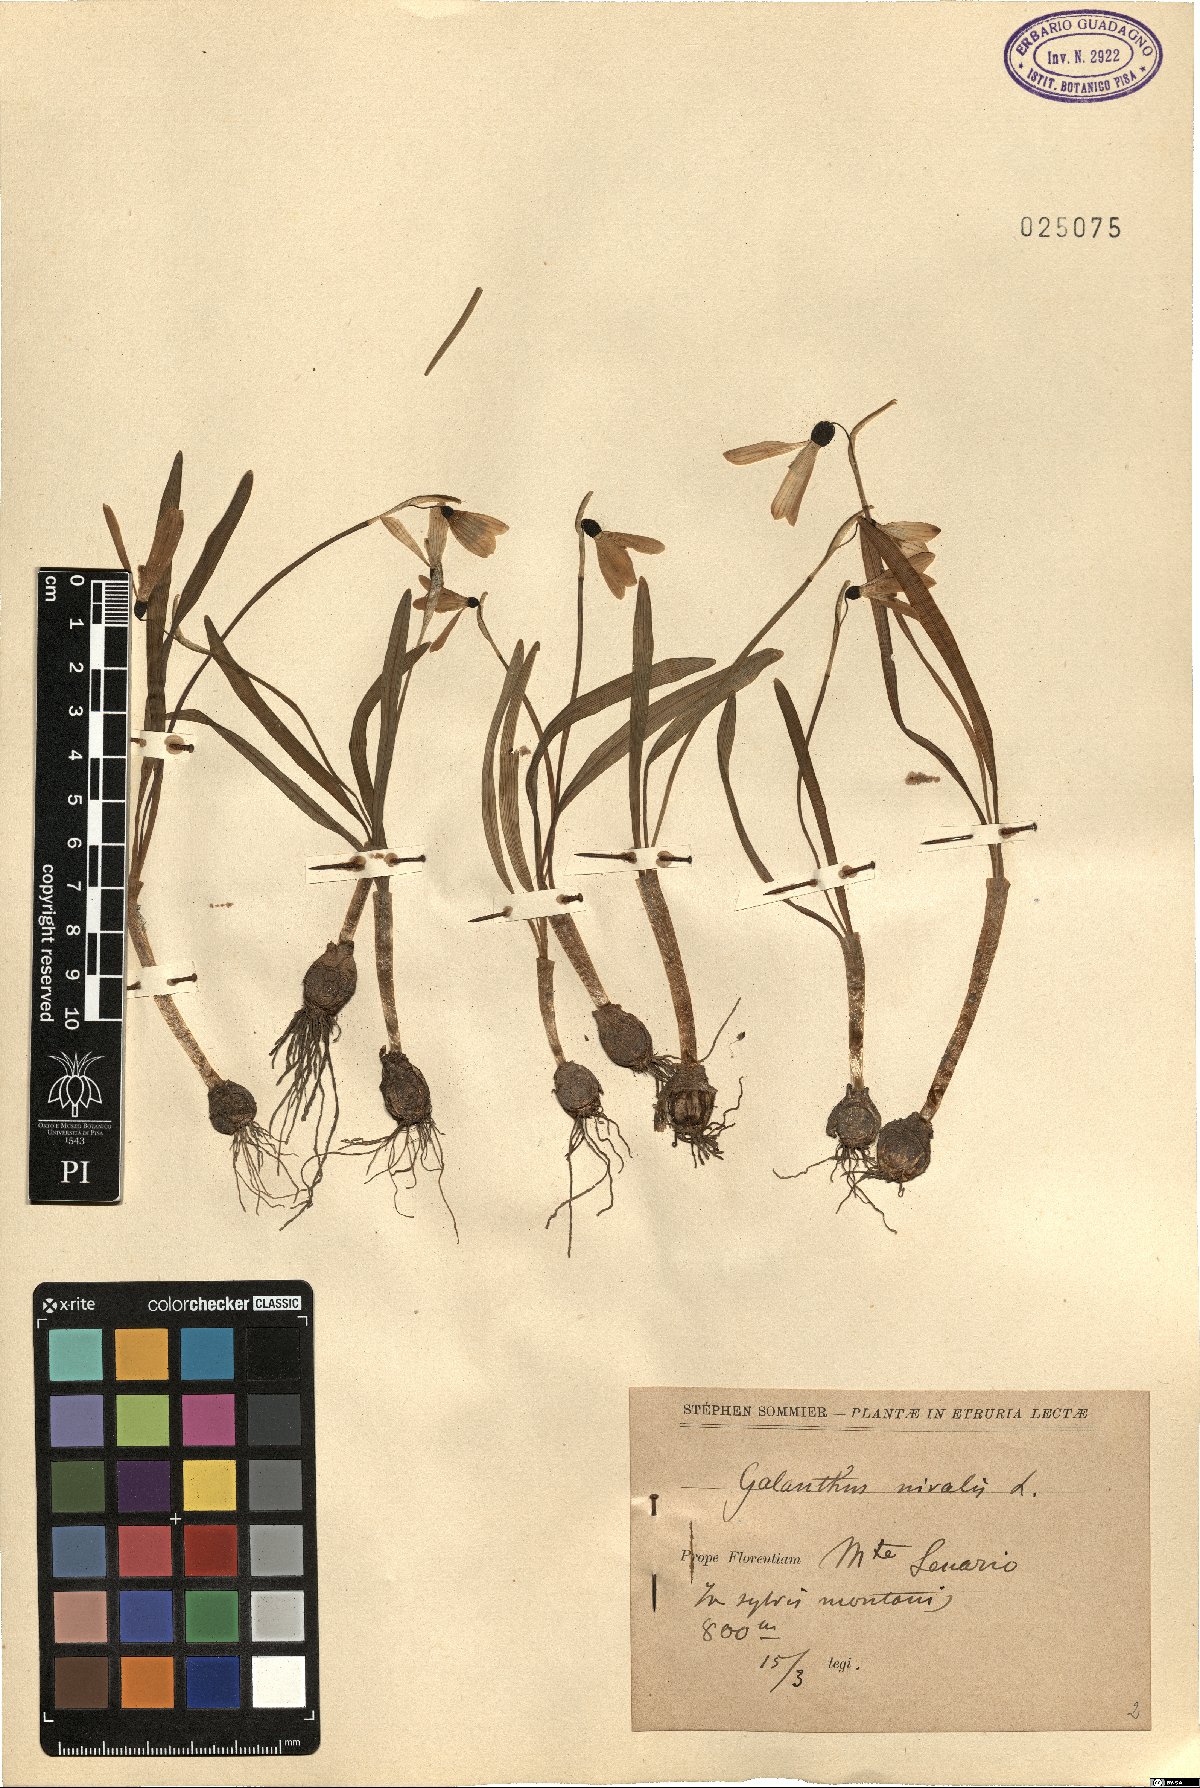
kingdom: Plantae
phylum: Tracheophyta
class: Liliopsida
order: Asparagales
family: Amaryllidaceae
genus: Galanthus
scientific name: Galanthus nivalis
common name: Snowdrop
